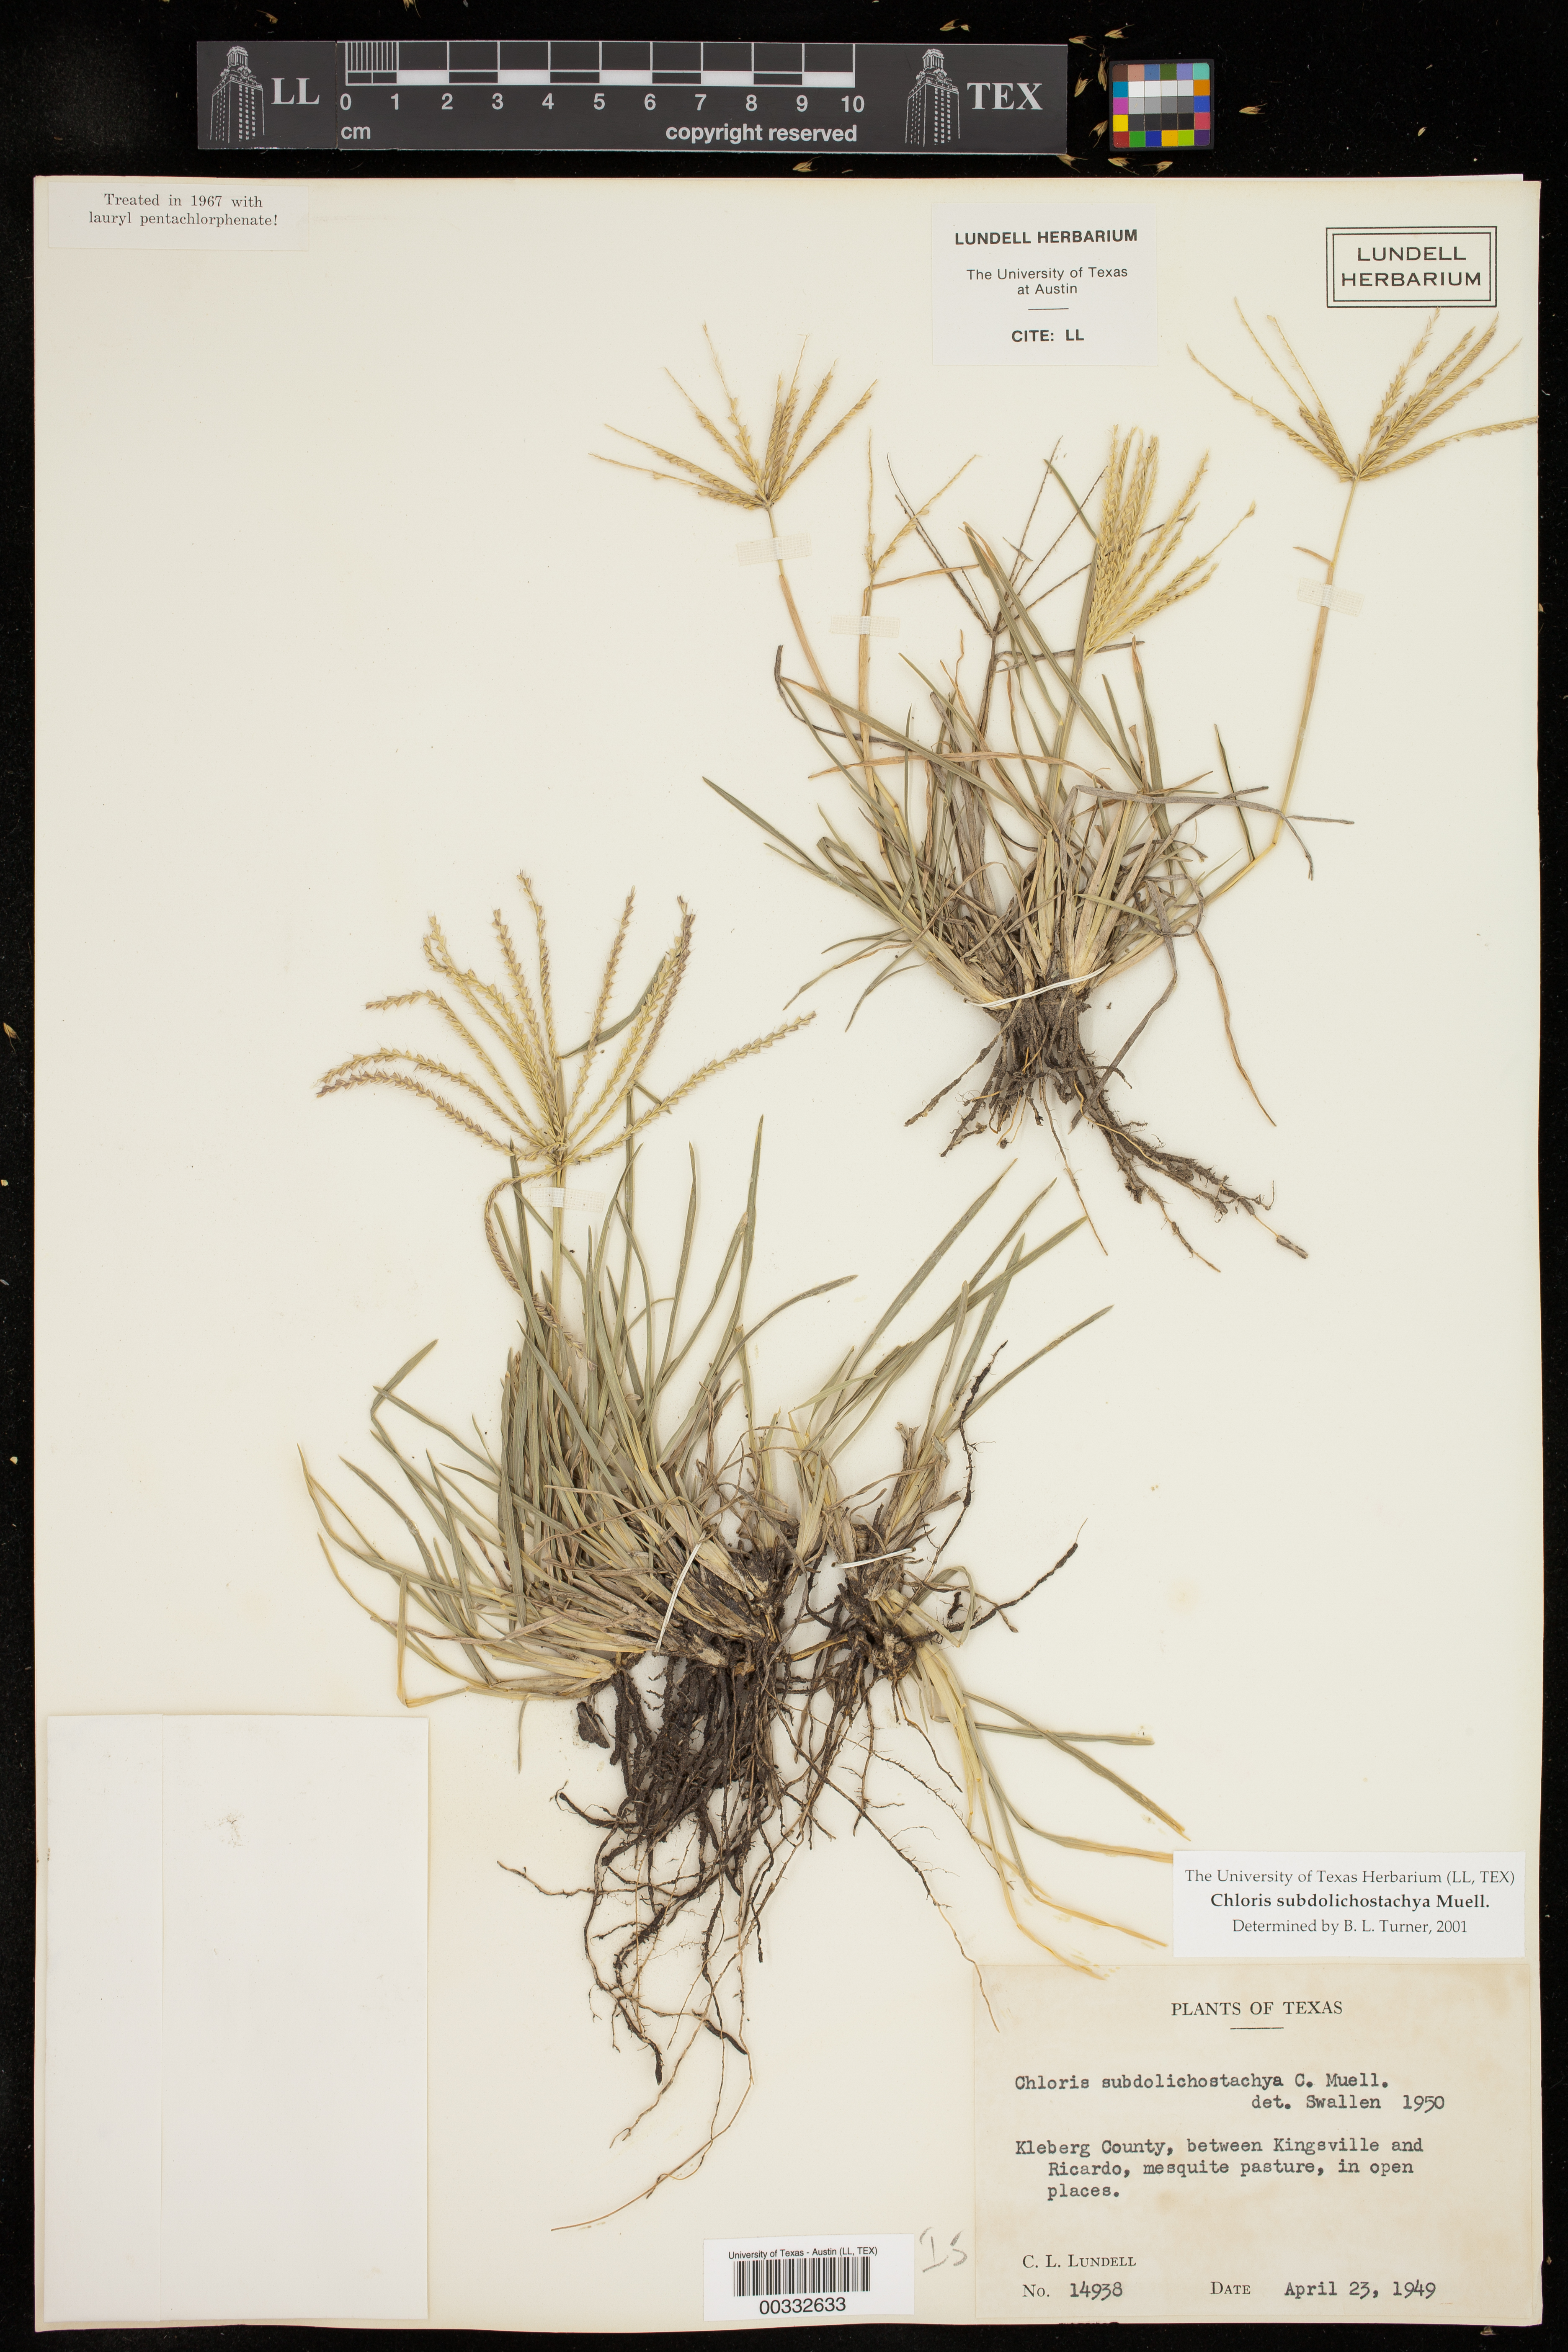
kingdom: Plantae
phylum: Tracheophyta
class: Liliopsida
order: Poales
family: Poaceae
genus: Chloris
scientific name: Chloris subdolichostachya
